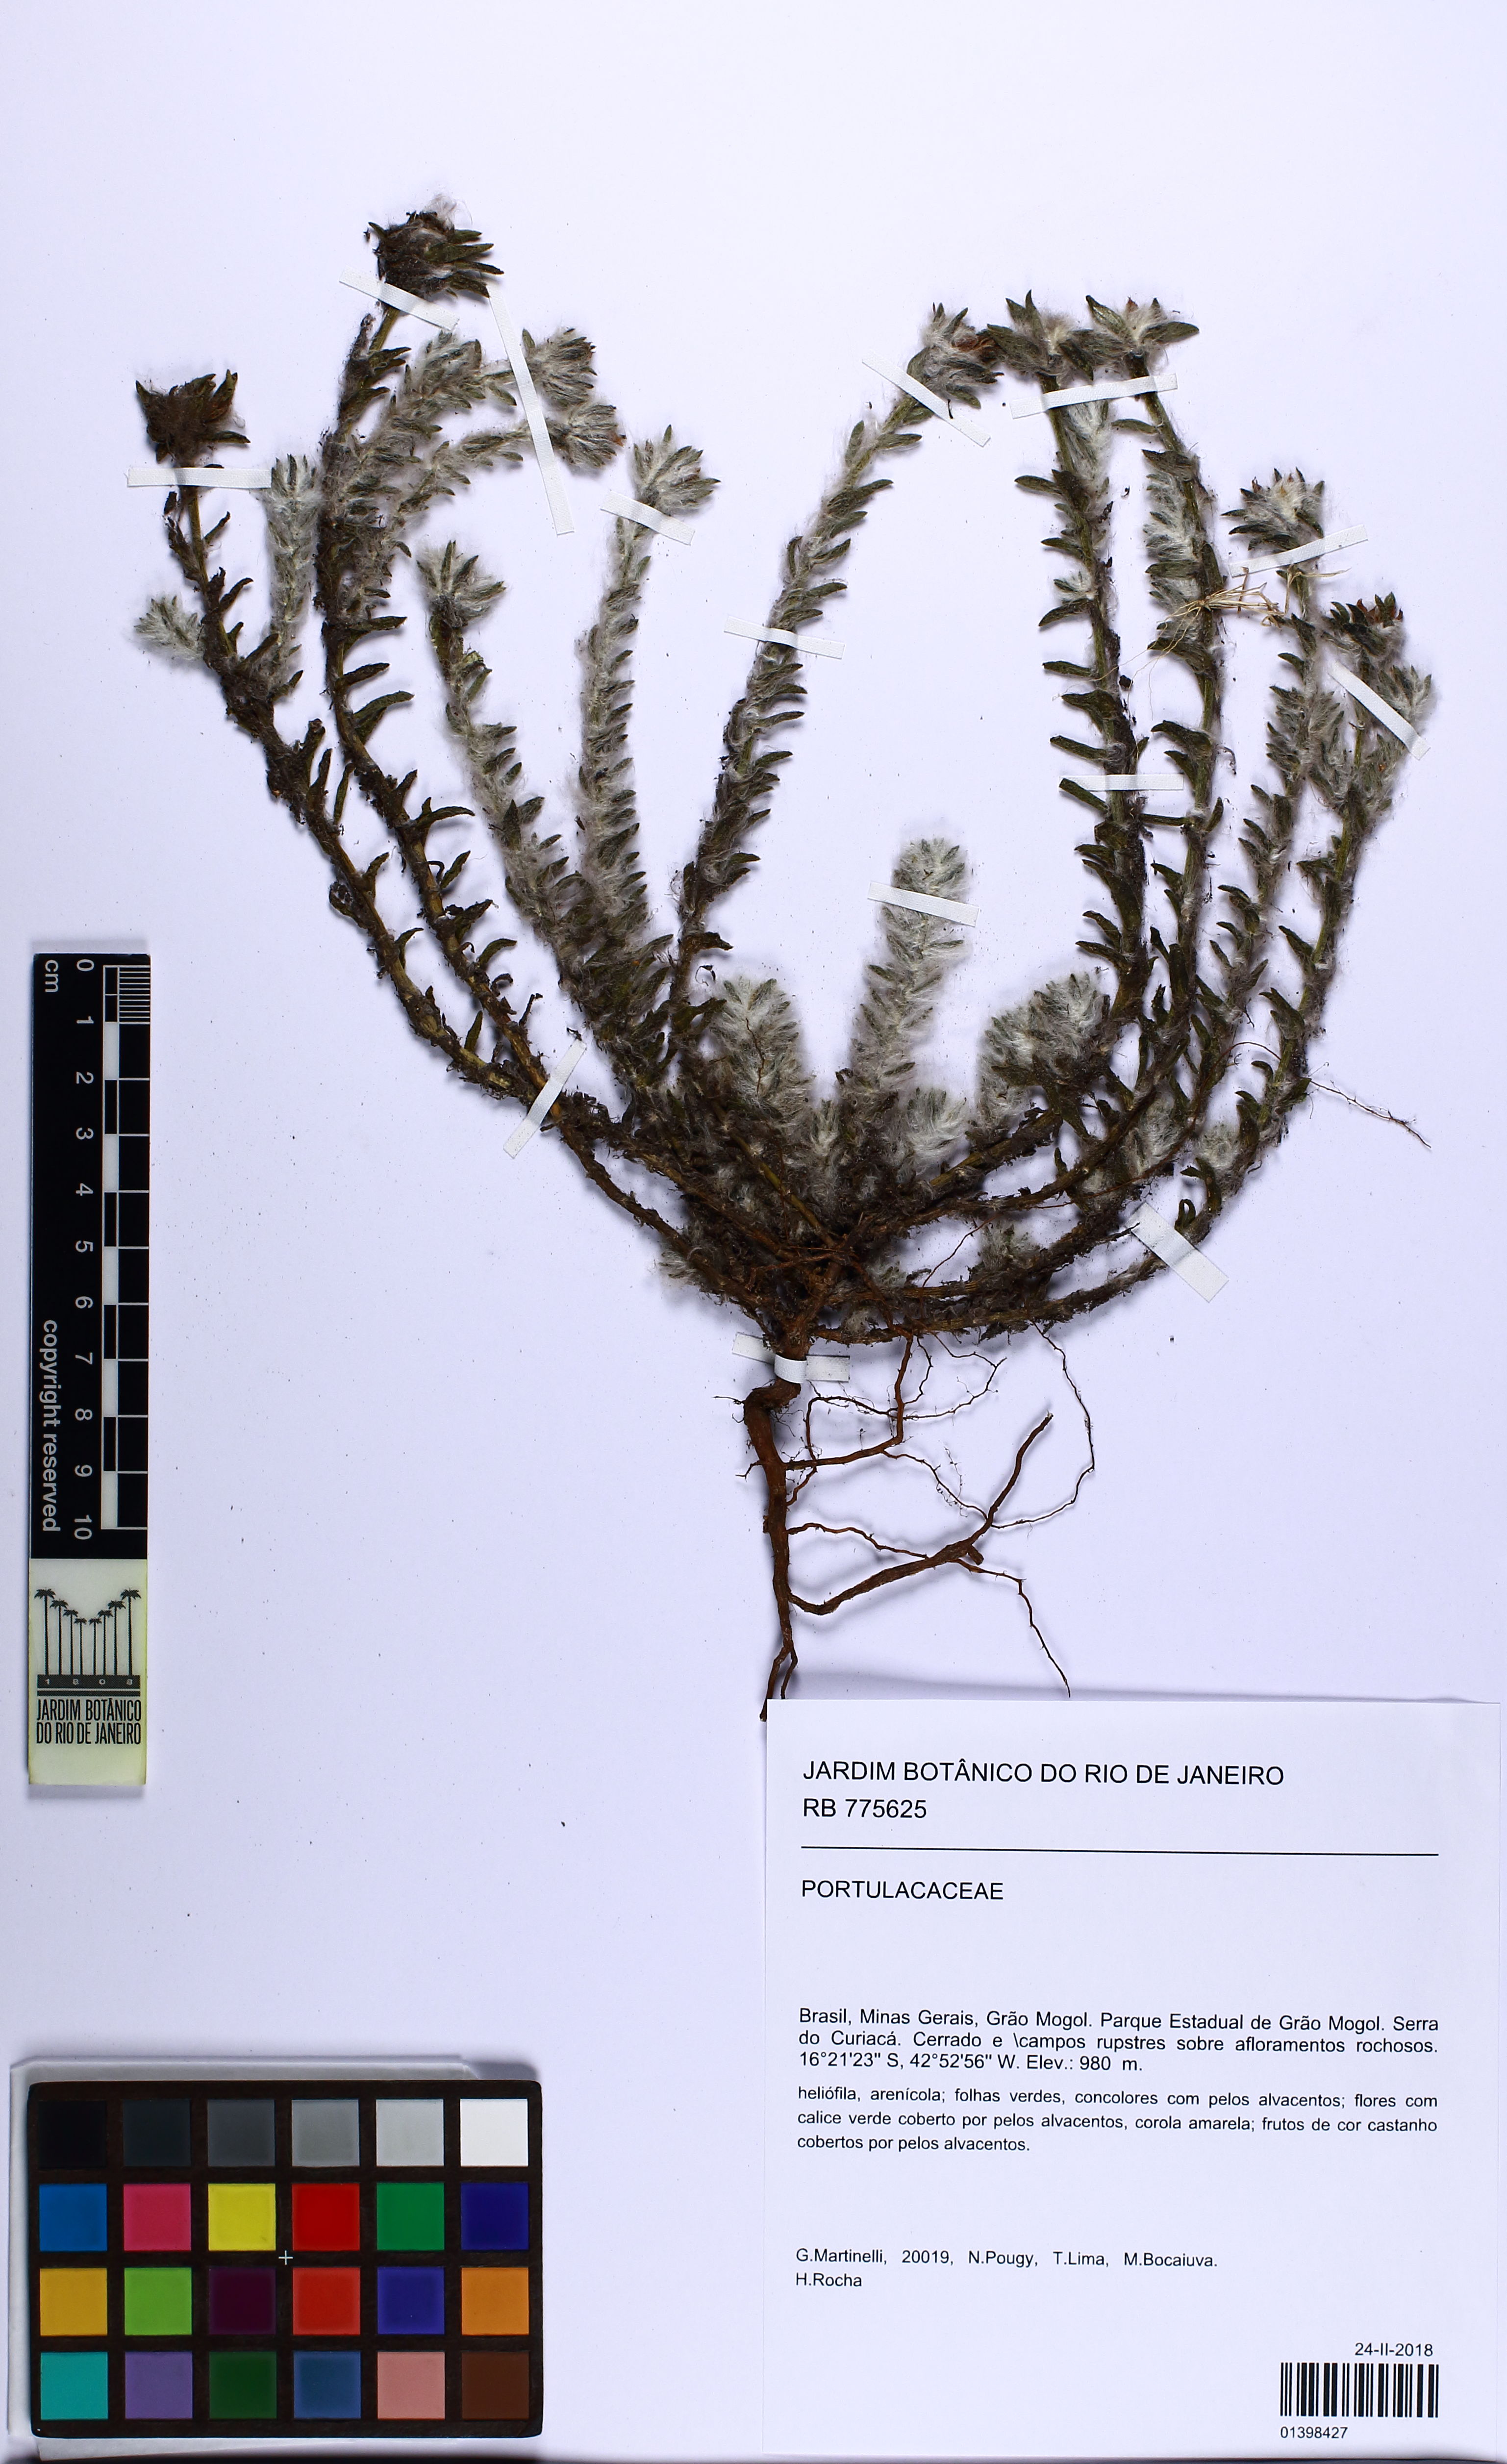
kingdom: Plantae
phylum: Tracheophyta
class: Magnoliopsida
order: Caryophyllales
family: Portulacaceae
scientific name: Portulacaceae
